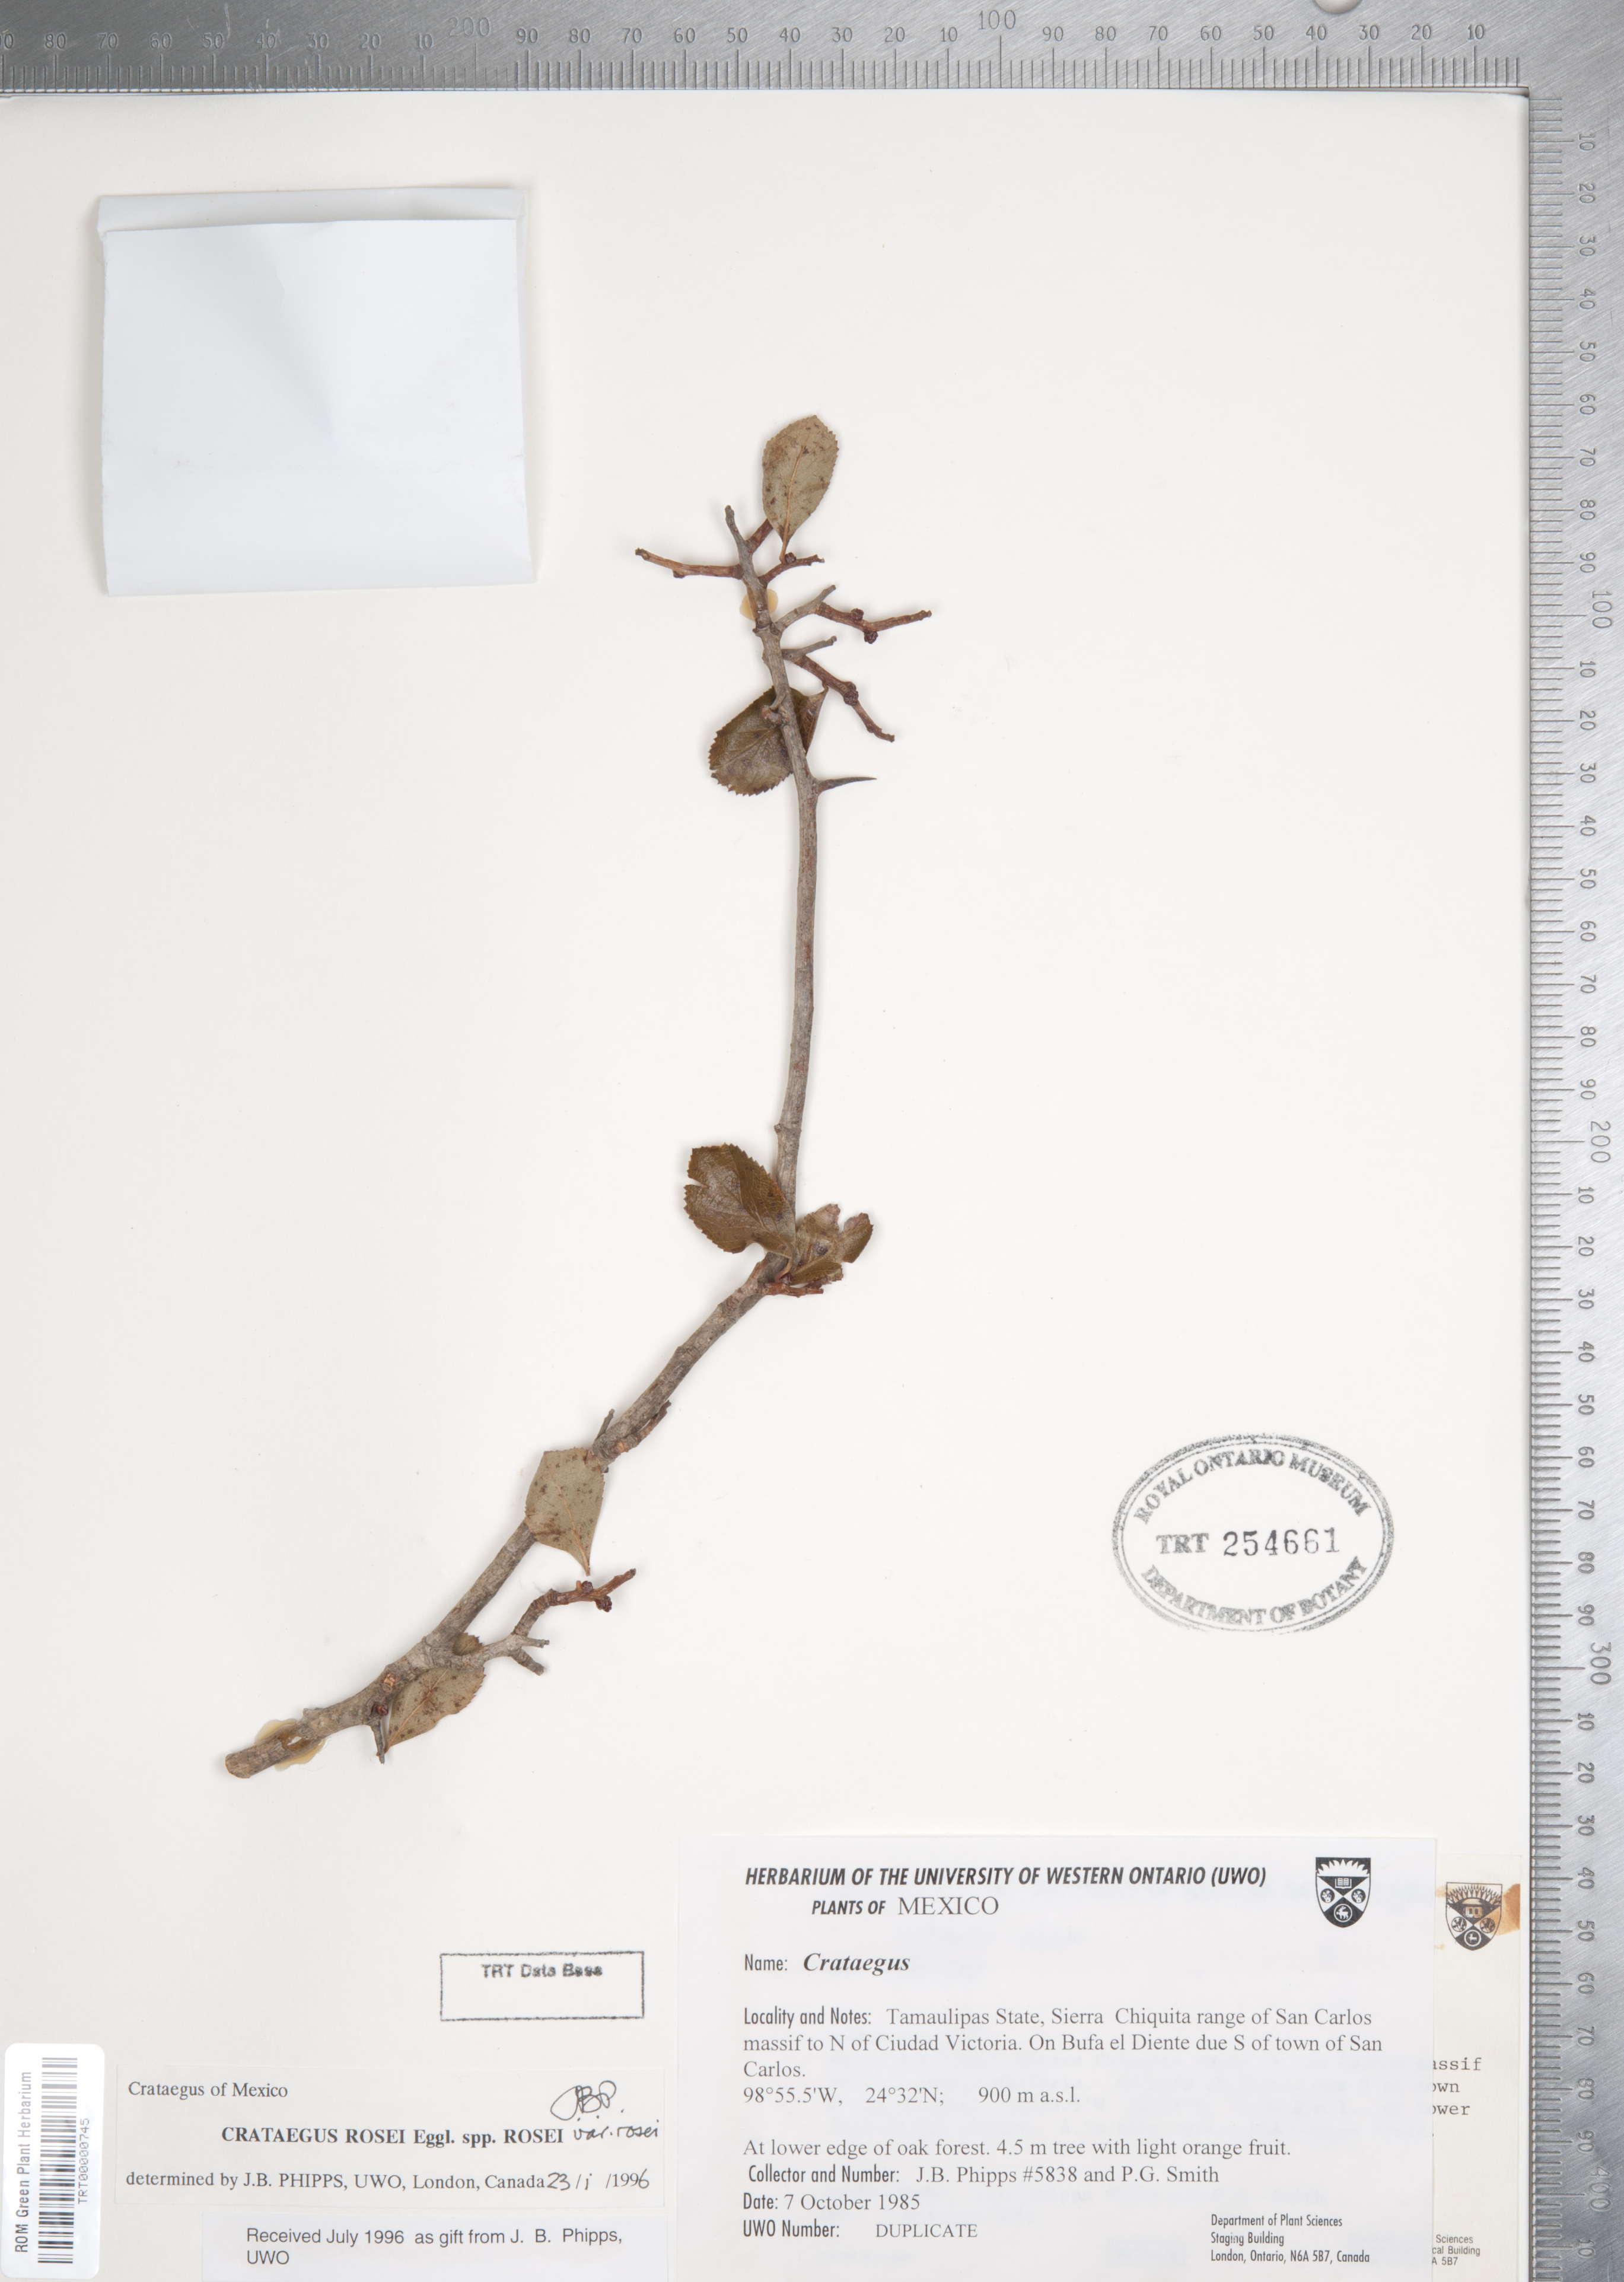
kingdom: Plantae
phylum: Tracheophyta
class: Magnoliopsida
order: Rosales
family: Rosaceae
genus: Crataegus
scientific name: Crataegus rosei
